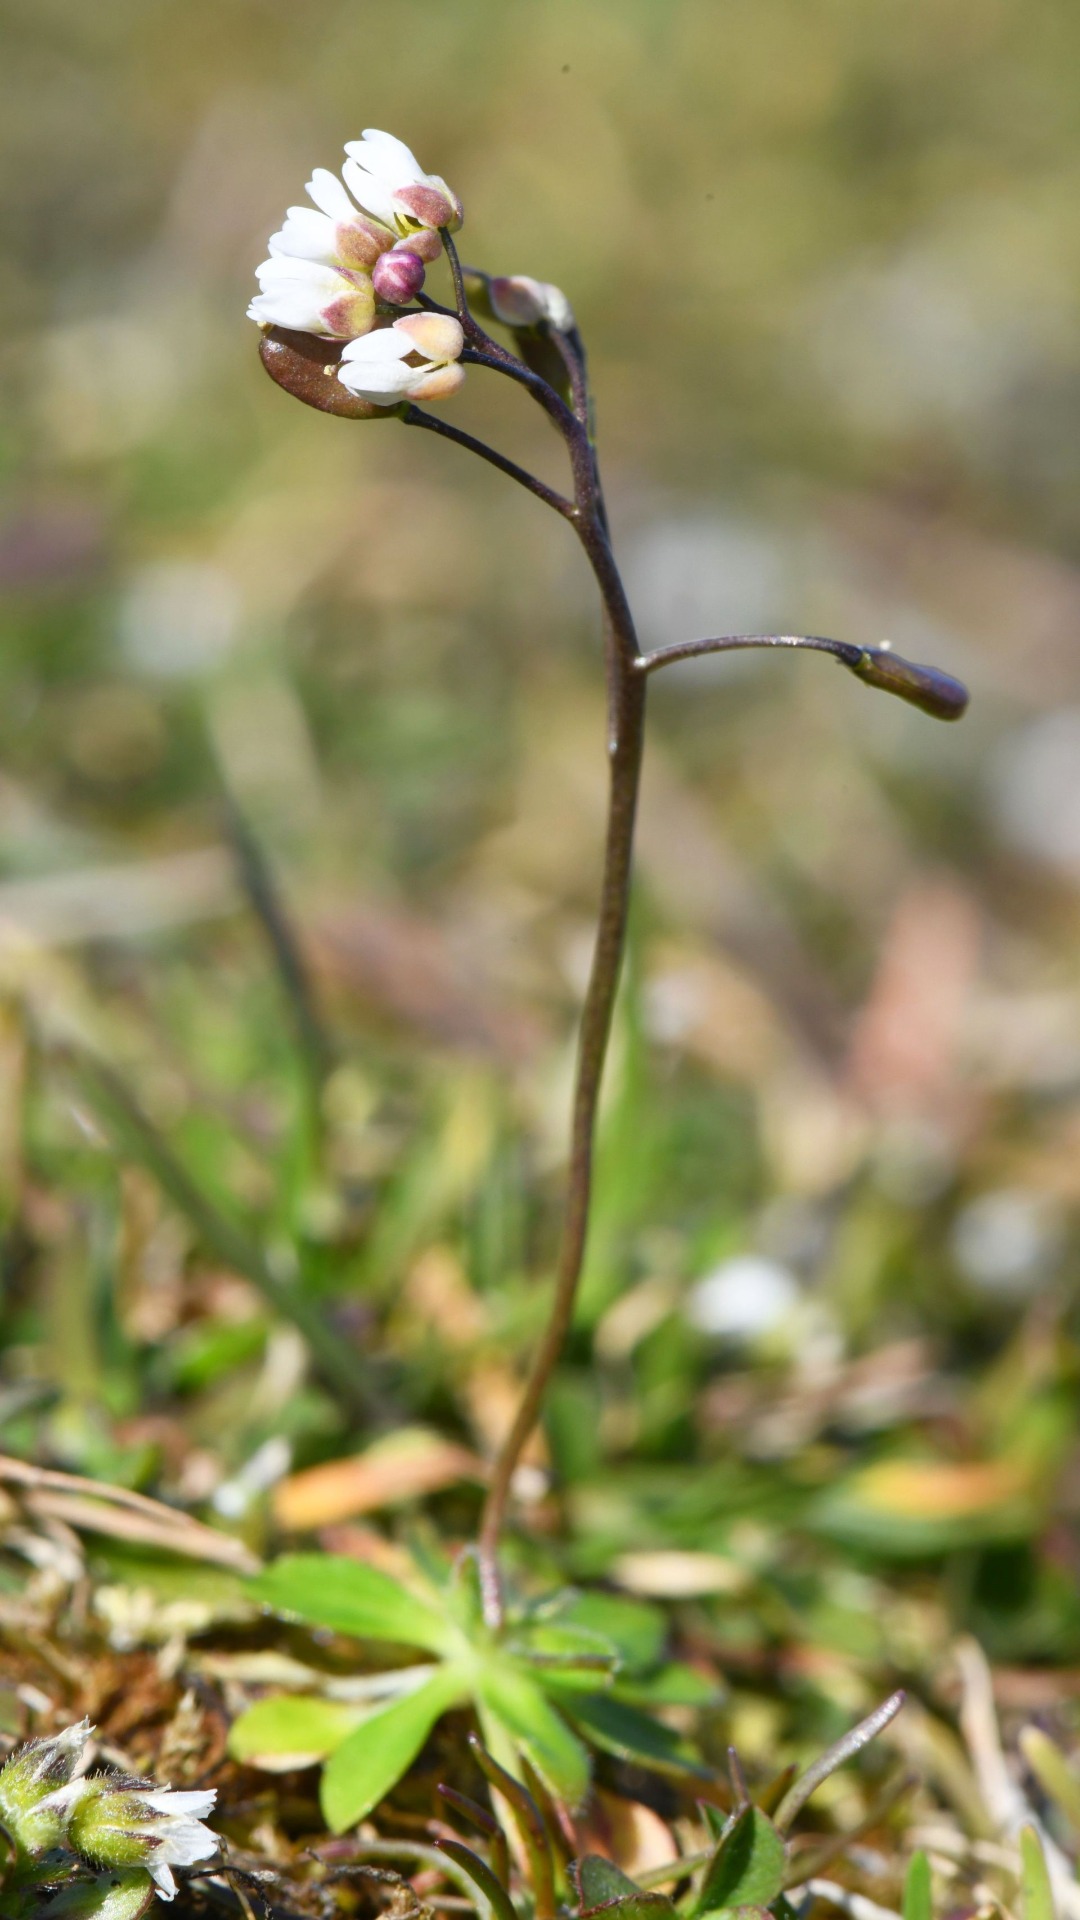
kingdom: Plantae
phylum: Tracheophyta
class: Magnoliopsida
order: Brassicales
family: Brassicaceae
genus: Draba
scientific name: Draba verna
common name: Vår-gæslingeblomst
